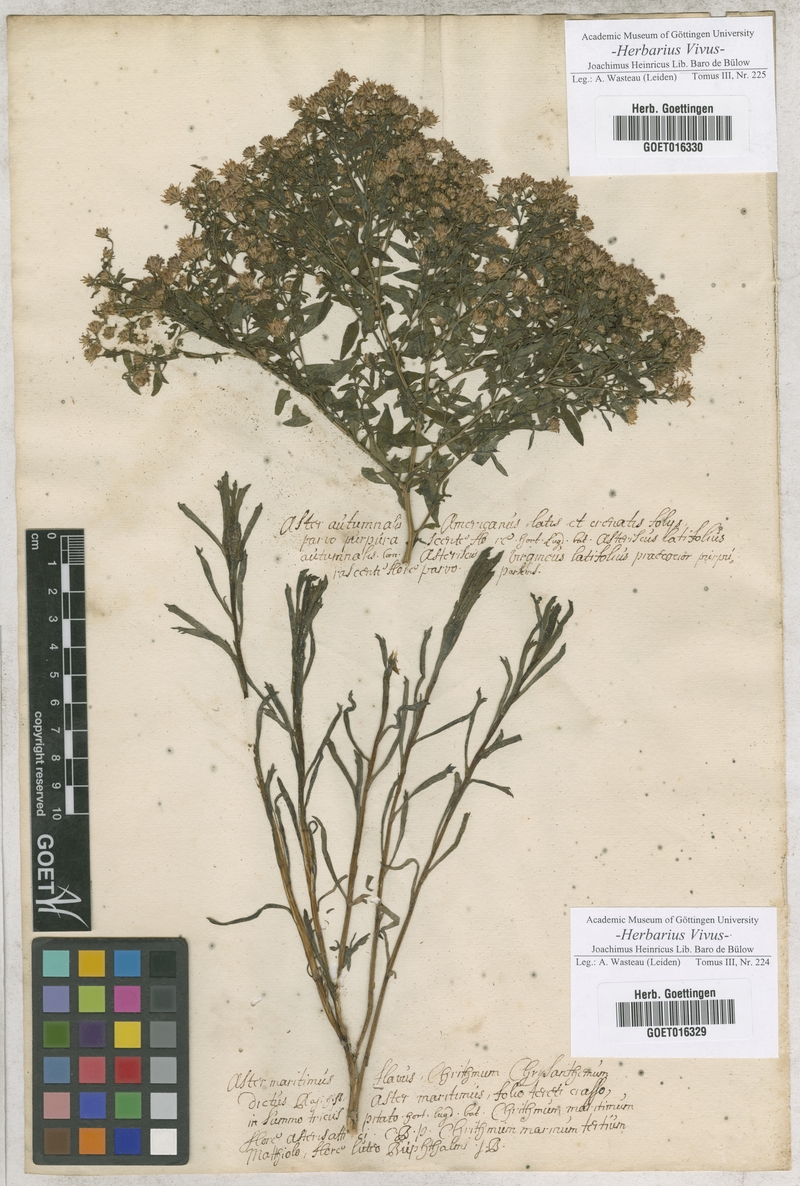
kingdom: Plantae
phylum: Tracheophyta
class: Magnoliopsida
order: Asterales
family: Asteraceae
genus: Aster
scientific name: Aster
